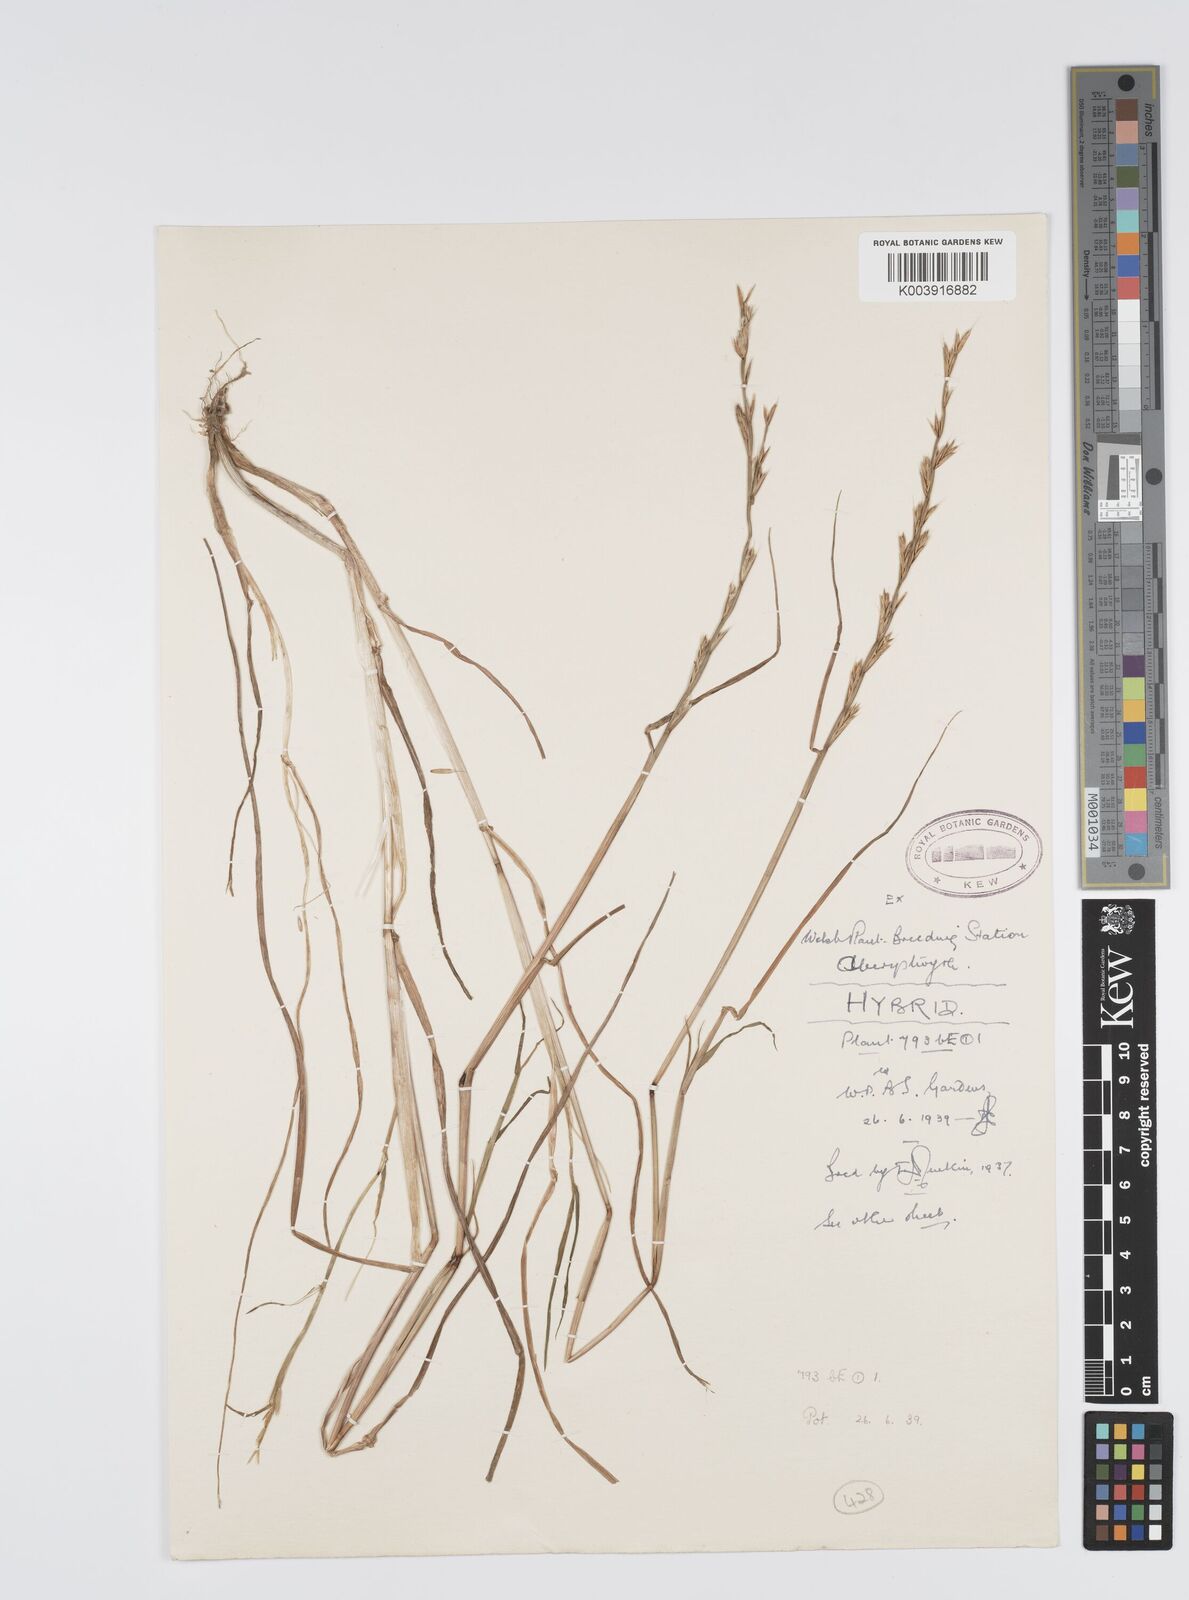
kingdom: Plantae
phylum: Tracheophyta
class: Liliopsida
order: Poales
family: Poaceae
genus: Lolium
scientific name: Lolium multiflorum
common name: Annual ryegrass
